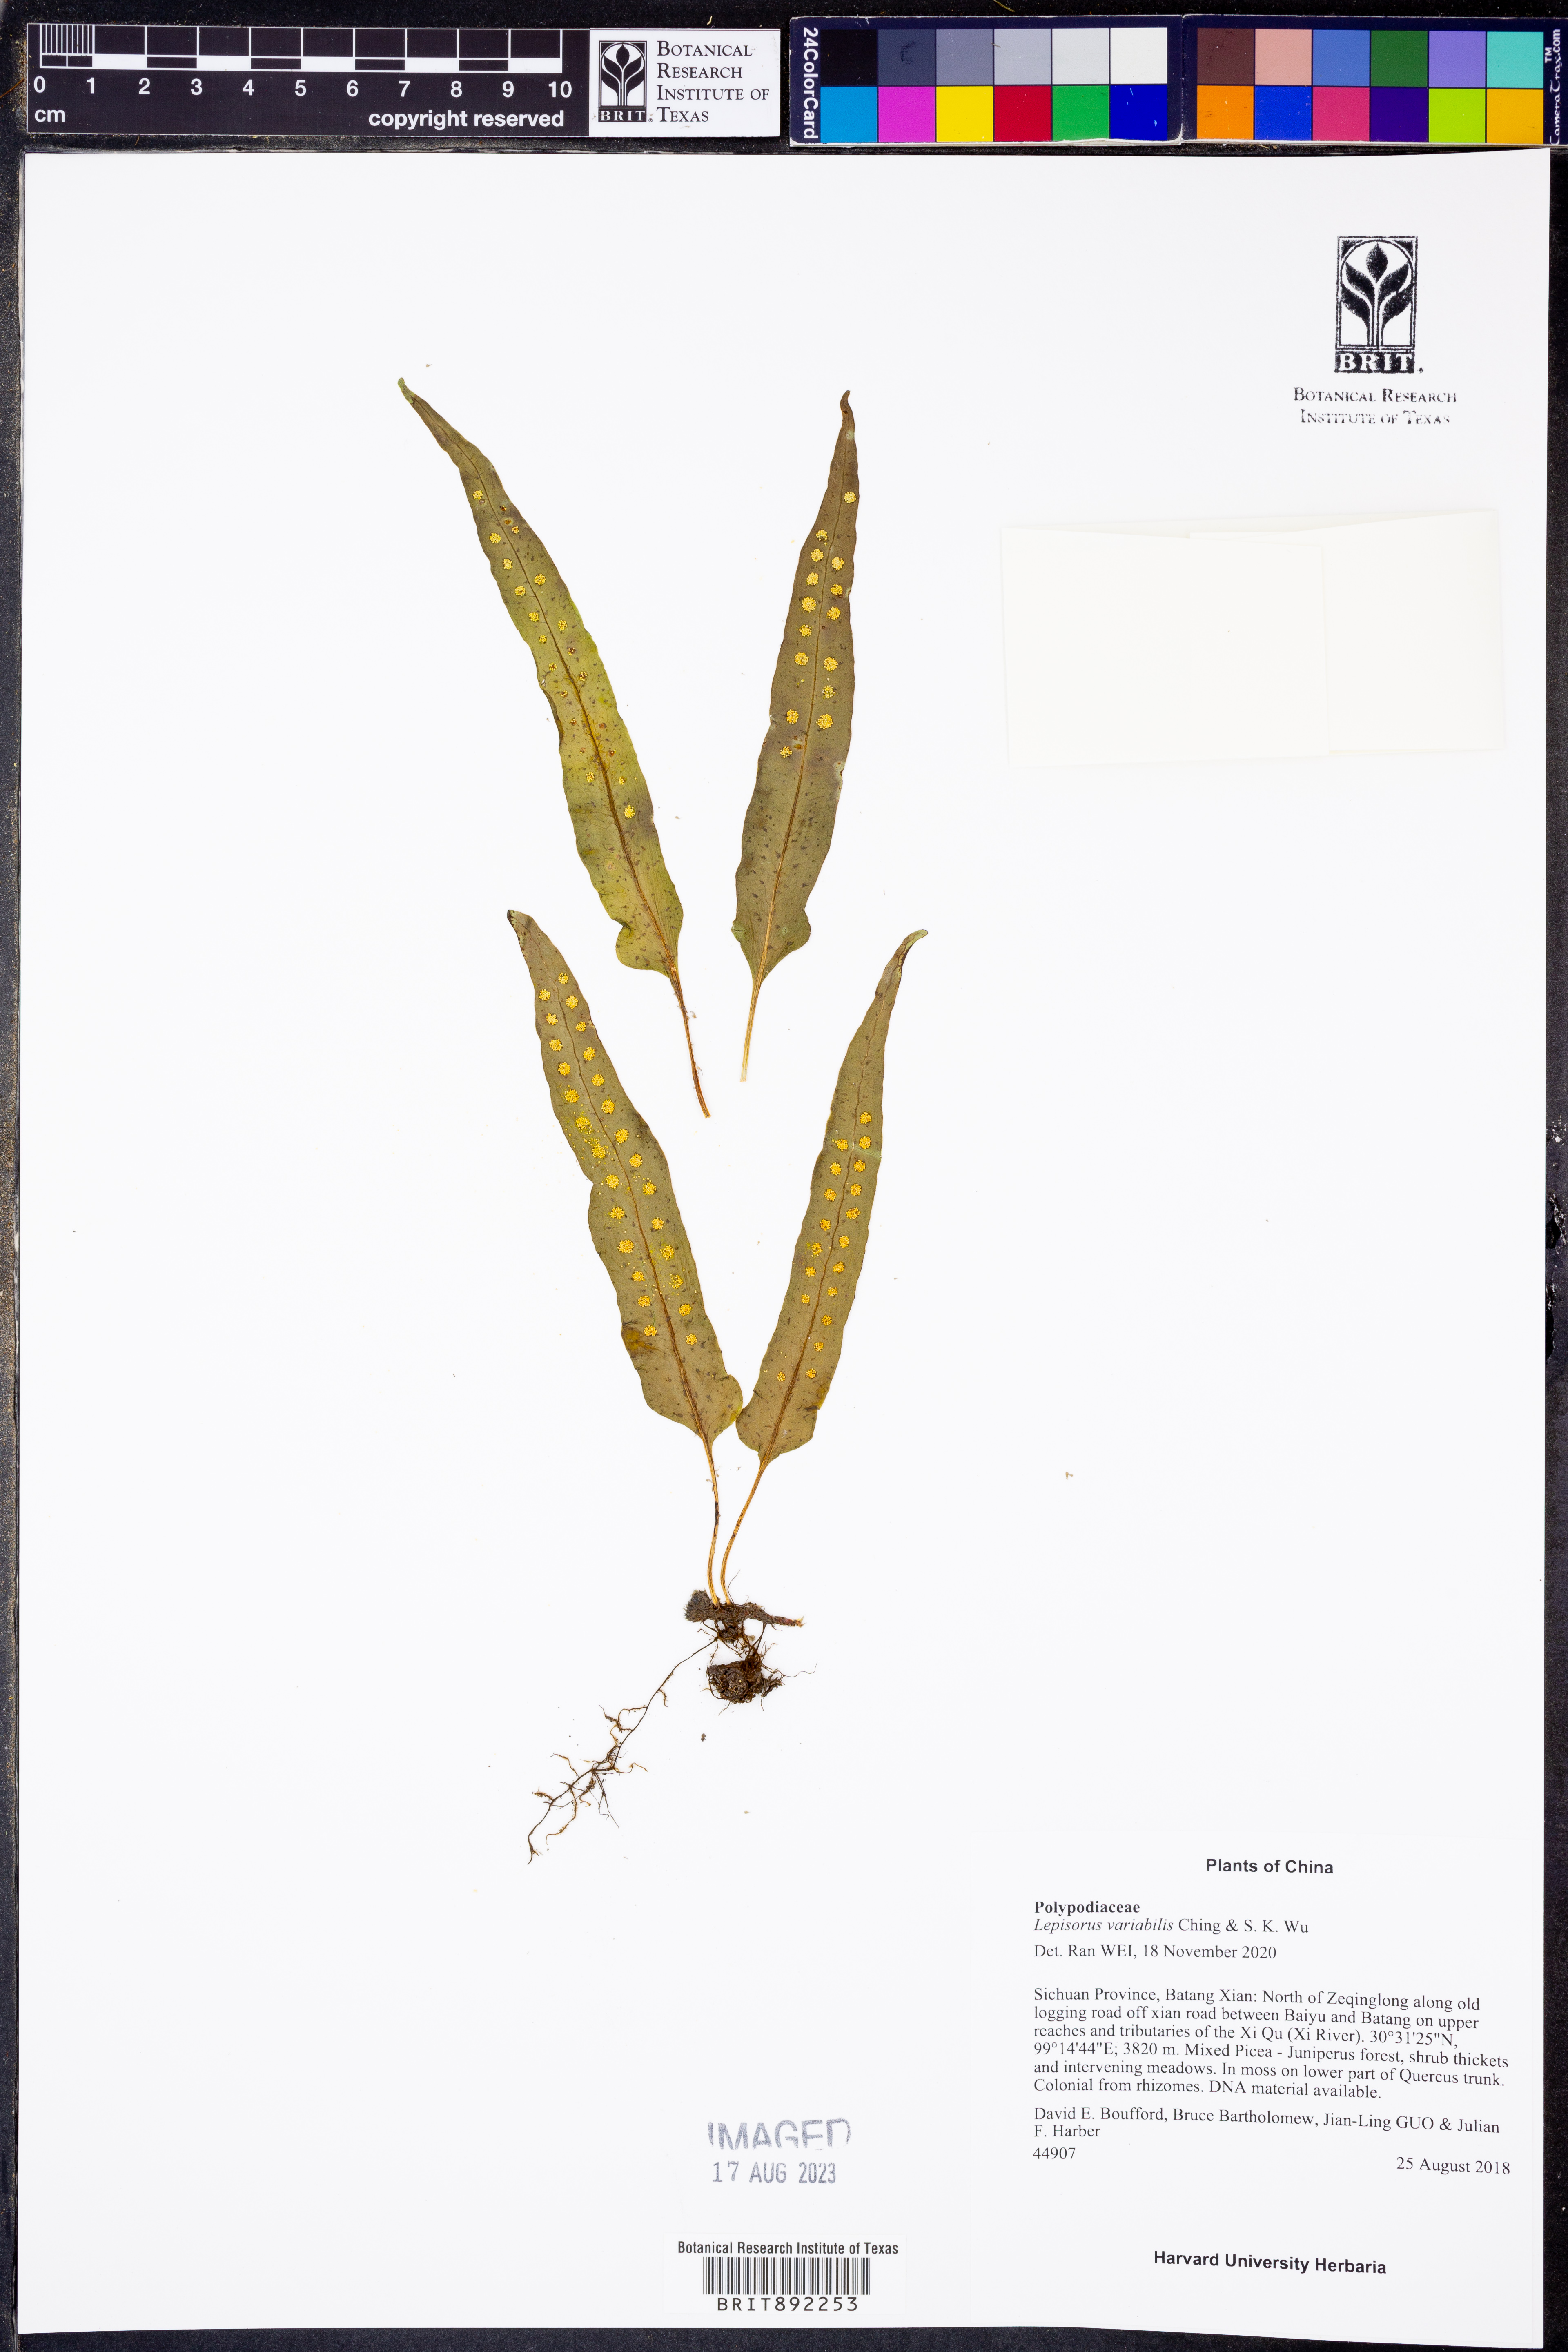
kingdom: Plantae
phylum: Tracheophyta
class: Polypodiopsida
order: Polypodiales
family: Polypodiaceae
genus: Lepisorus
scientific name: Lepisorus clathratus
